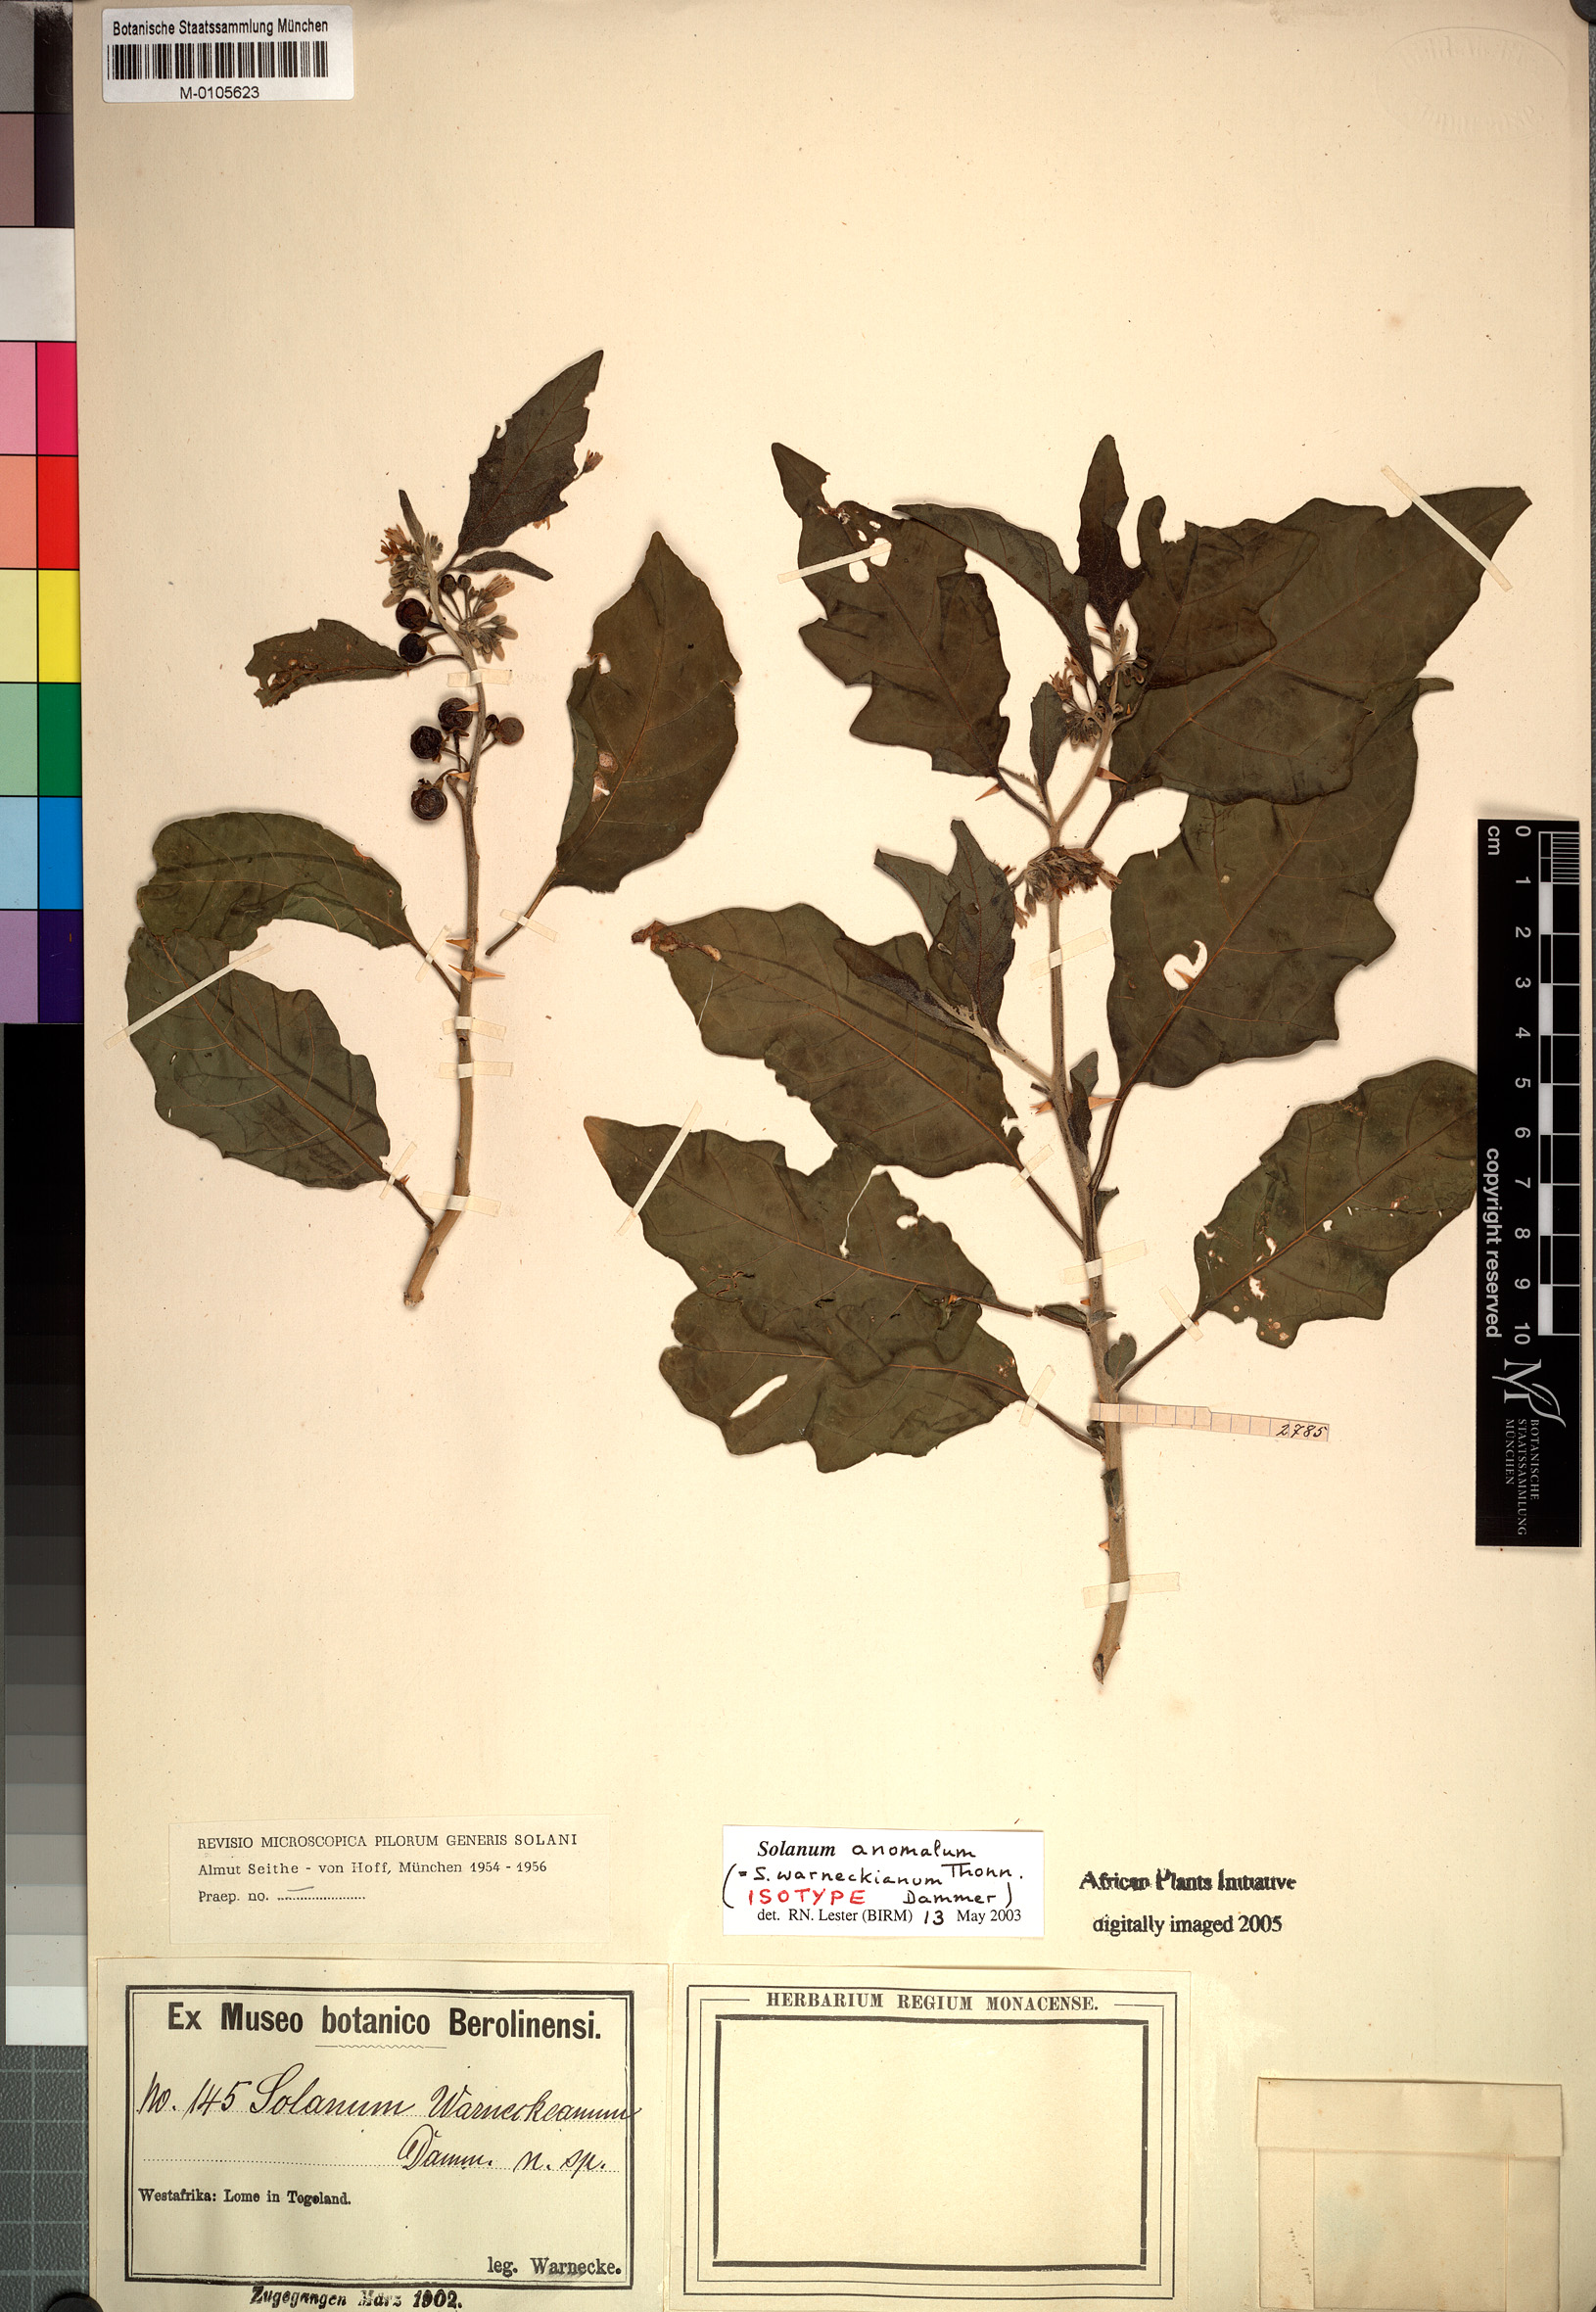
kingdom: Plantae
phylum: Tracheophyta
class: Magnoliopsida
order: Solanales
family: Solanaceae
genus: Solanum
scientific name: Solanum anomalum
